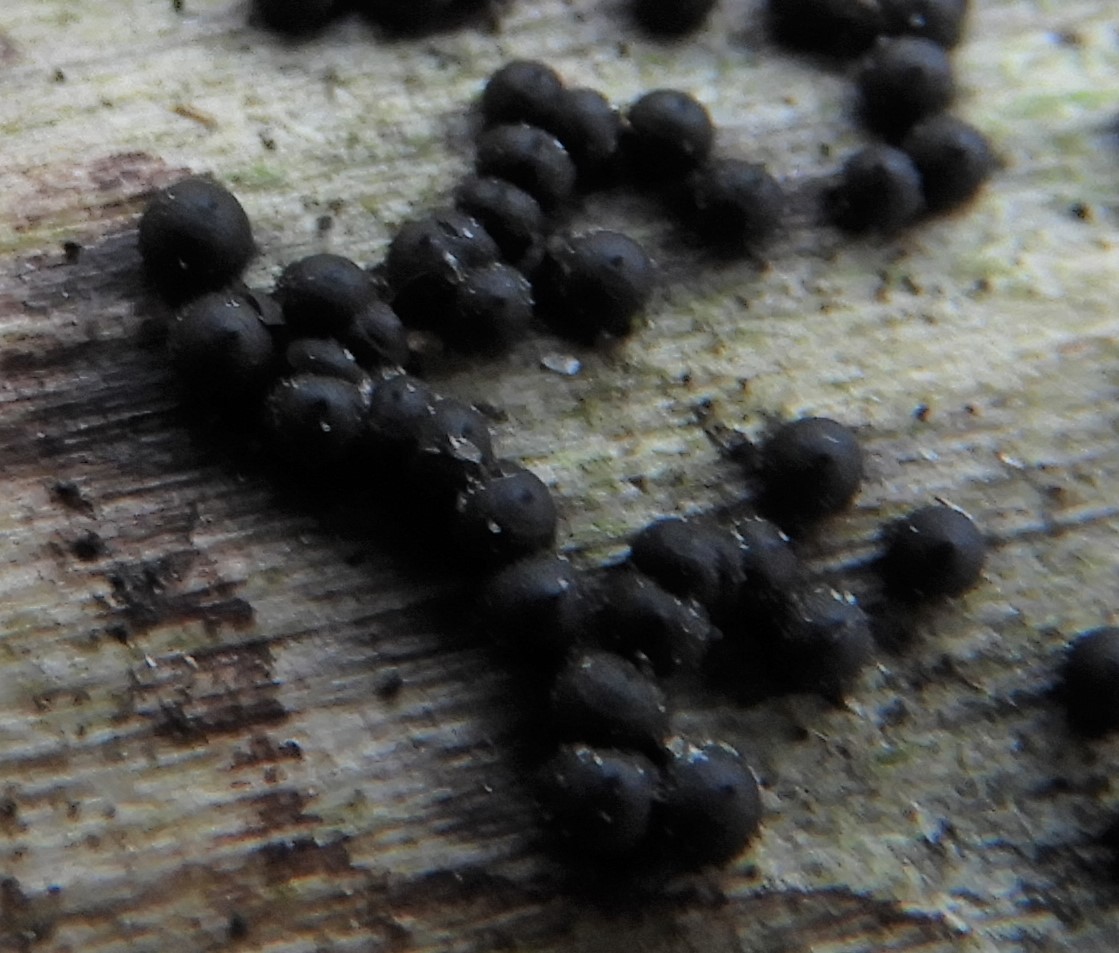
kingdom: Fungi
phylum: Ascomycota
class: Sordariomycetes
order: Xylariales
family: Xylariaceae
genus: Rosellinia
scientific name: Rosellinia marcucciana
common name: måtteløs kulkaviar
